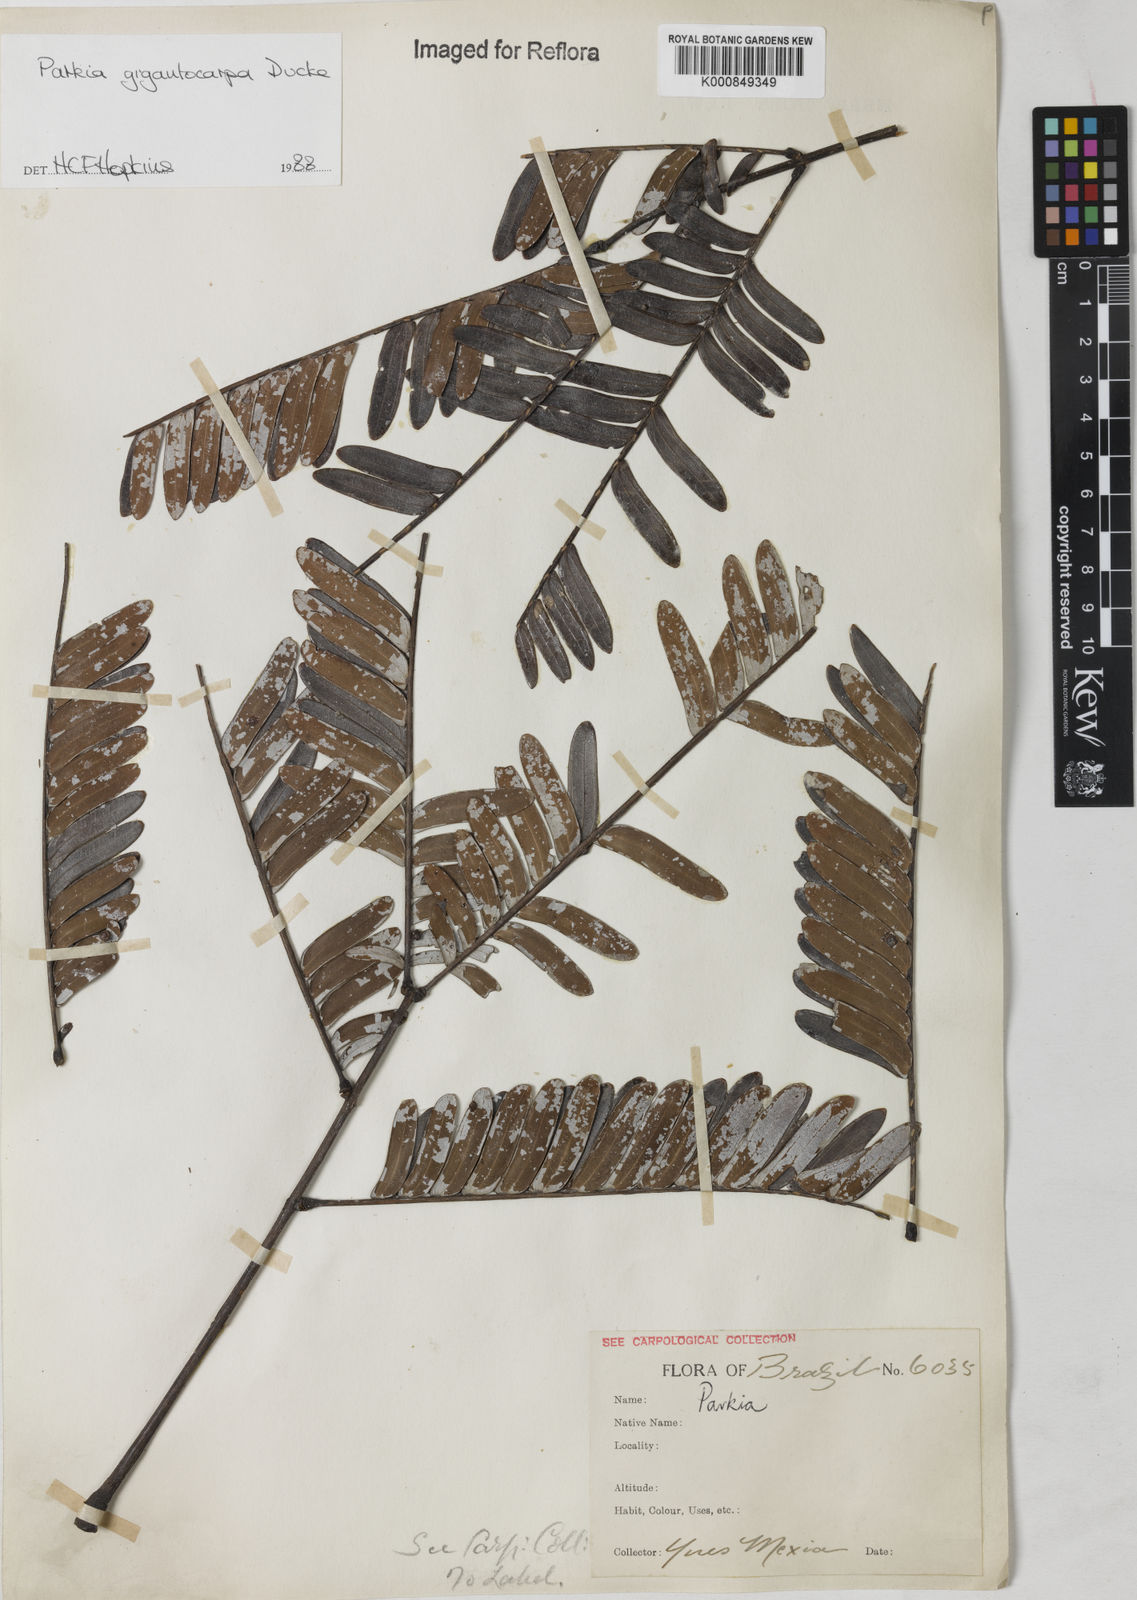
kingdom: Plantae
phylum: Tracheophyta
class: Magnoliopsida
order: Fabales
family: Fabaceae
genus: Parkia
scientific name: Parkia gigantocarpa
